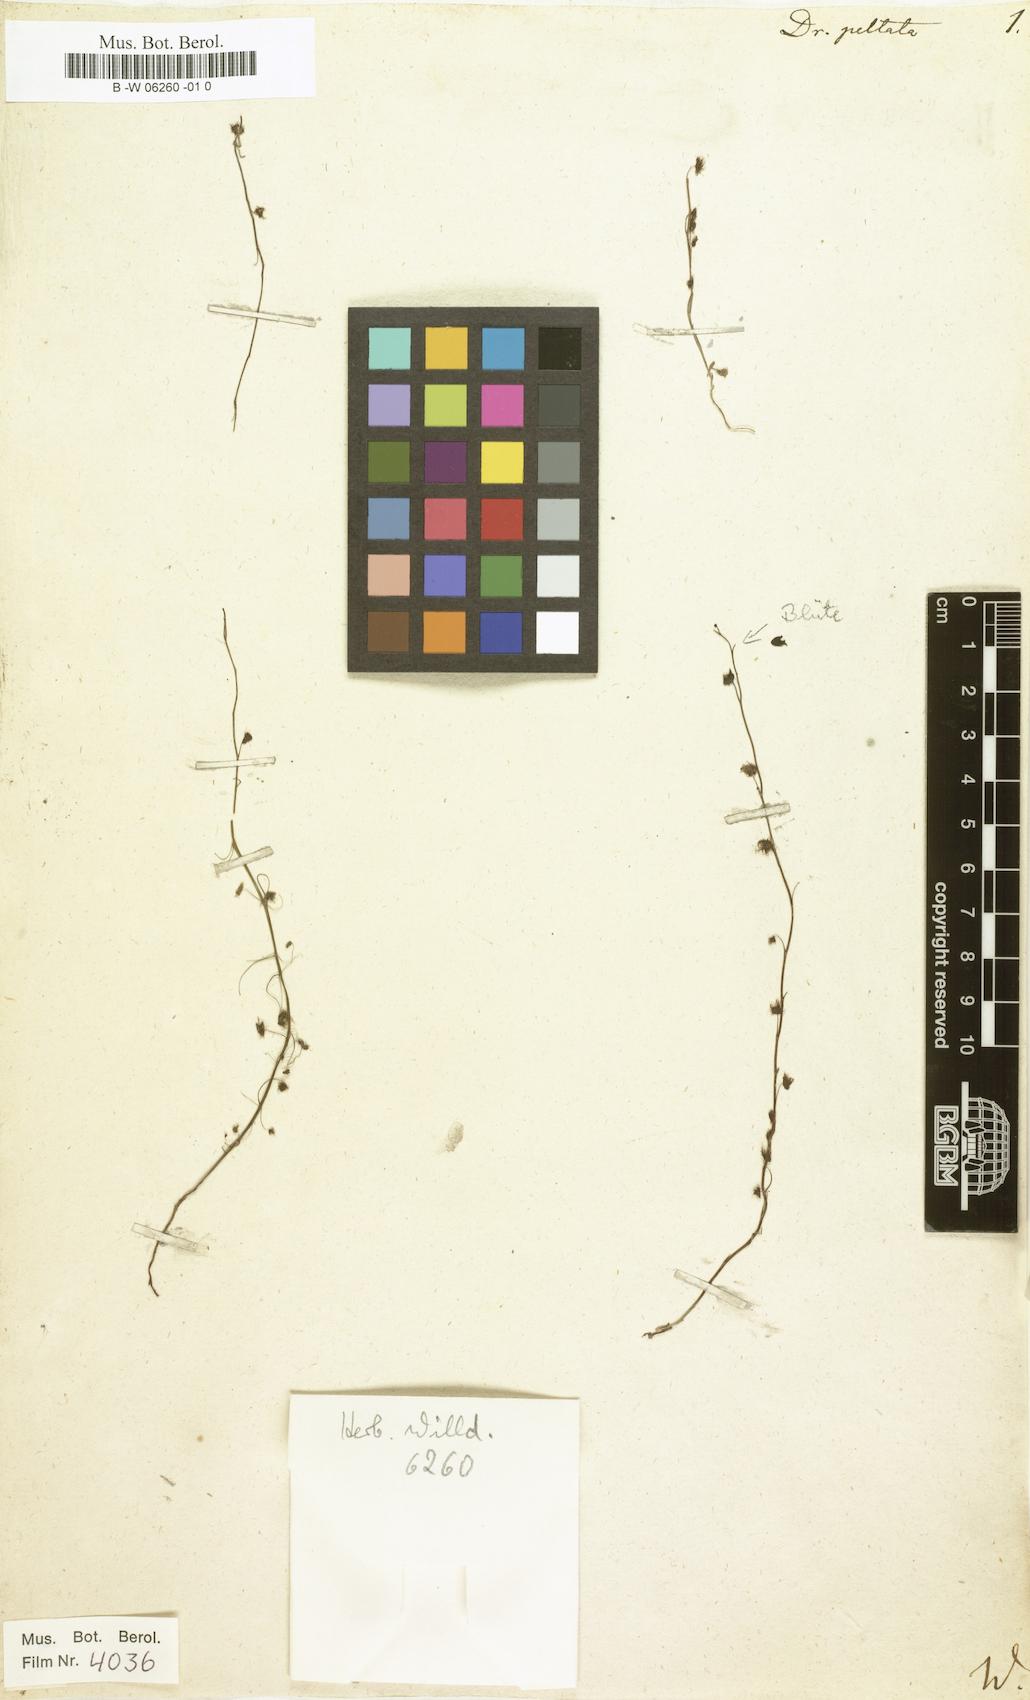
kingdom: Plantae
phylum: Tracheophyta
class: Magnoliopsida
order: Caryophyllales
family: Droseraceae
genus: Drosera
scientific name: Drosera peltata
